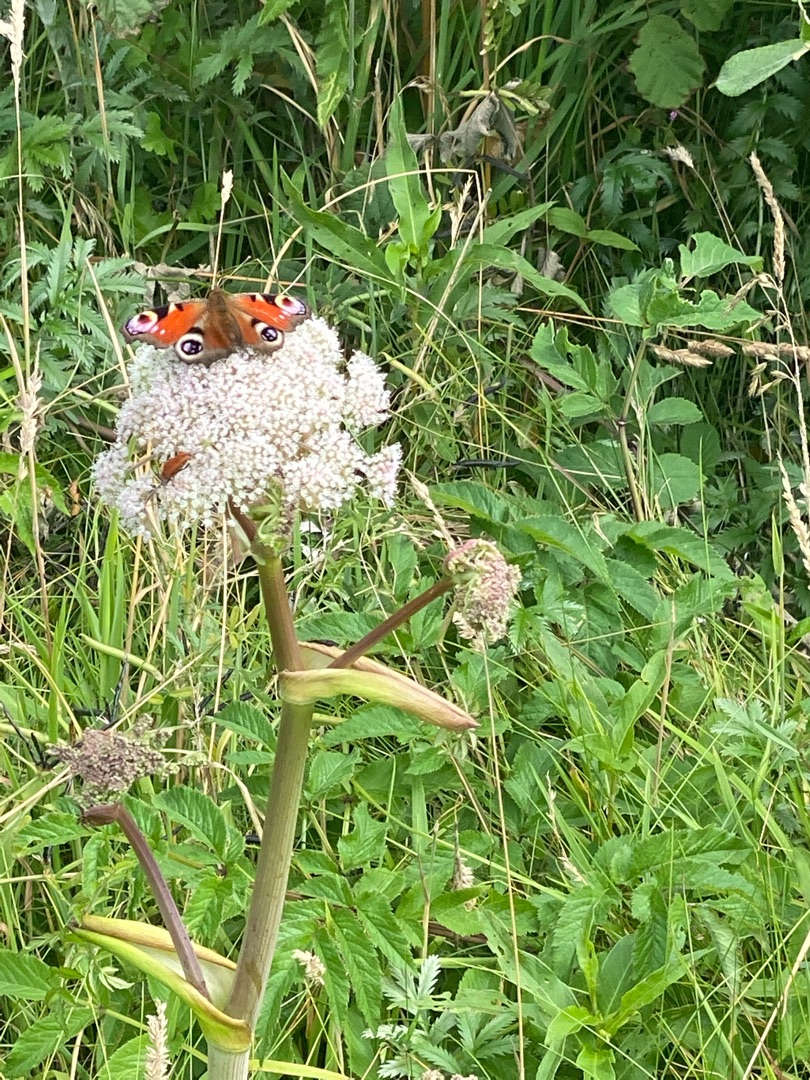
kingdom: Animalia
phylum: Arthropoda
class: Insecta
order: Lepidoptera
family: Nymphalidae
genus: Aglais
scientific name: Aglais io
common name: Dagpåfugleøje
